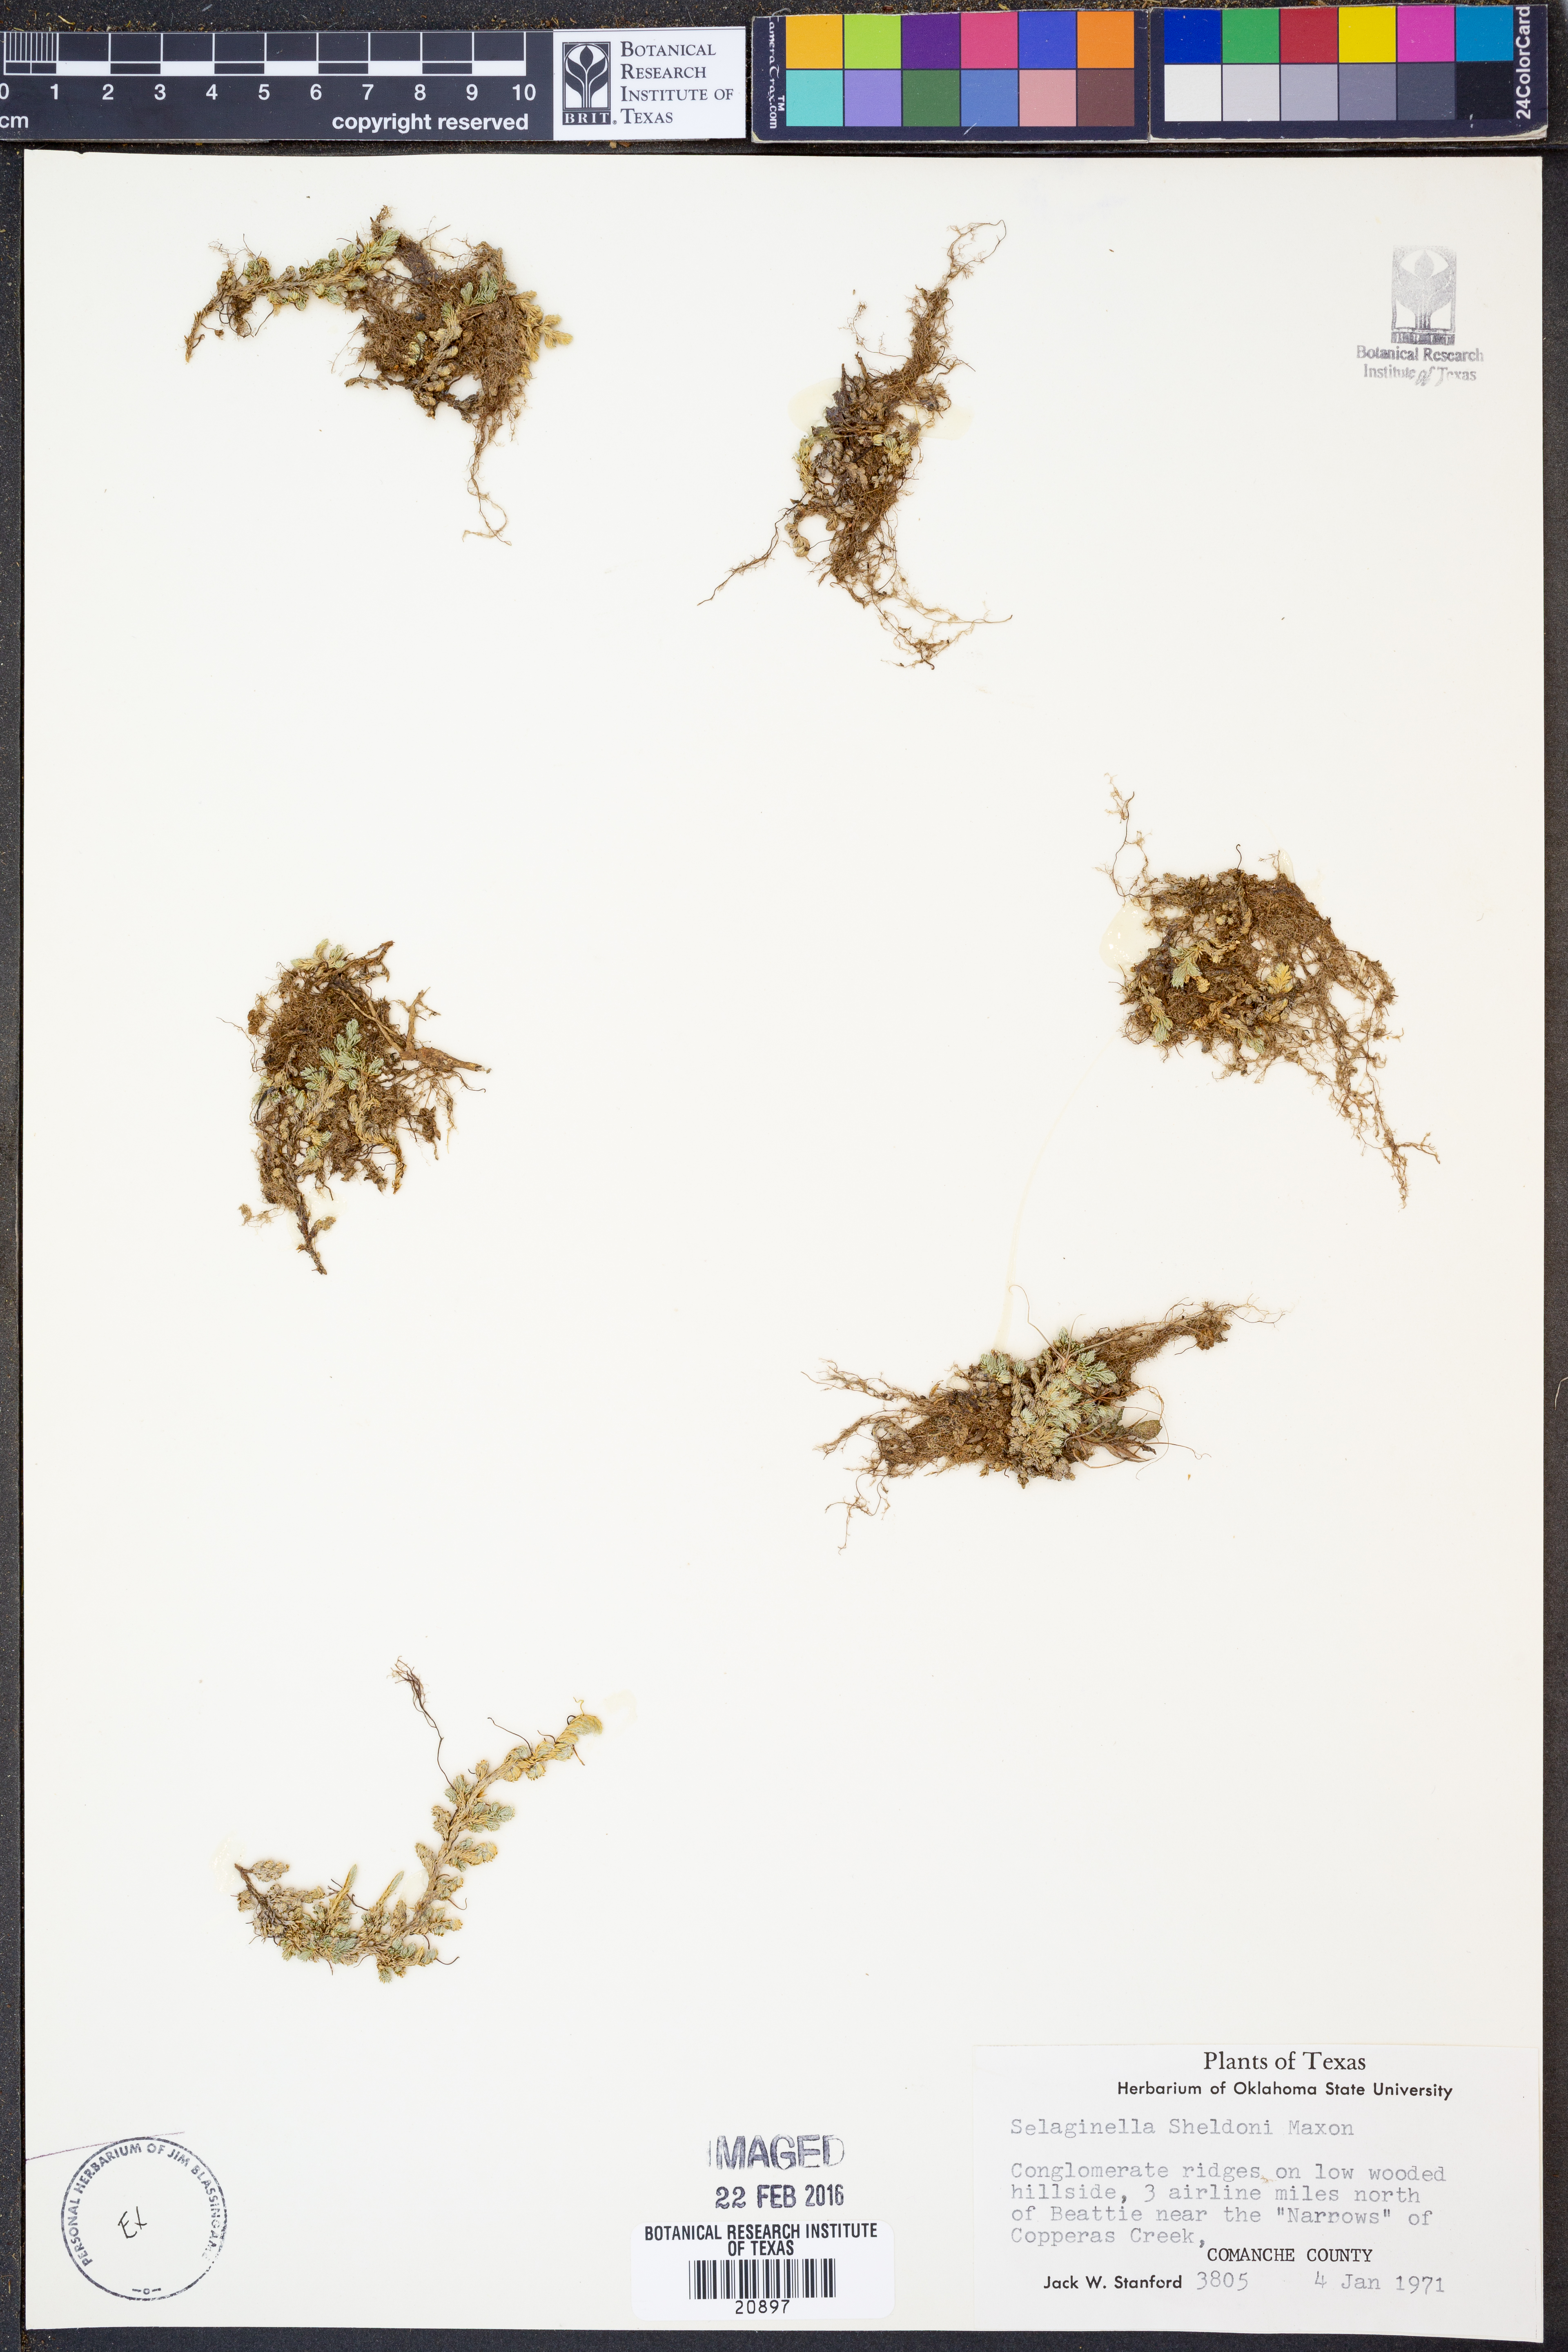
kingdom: Plantae
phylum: Tracheophyta
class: Lycopodiopsida
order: Selaginellales
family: Selaginellaceae
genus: Selaginella
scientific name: Selaginella peruviana
